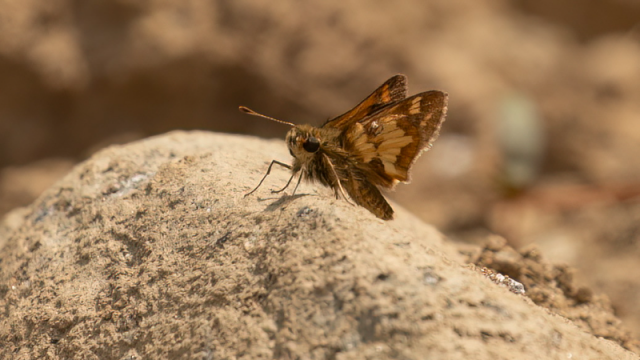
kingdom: Animalia
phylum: Arthropoda
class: Insecta
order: Lepidoptera
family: Hesperiidae
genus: Polites
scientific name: Polites coras
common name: Peck's Skipper
